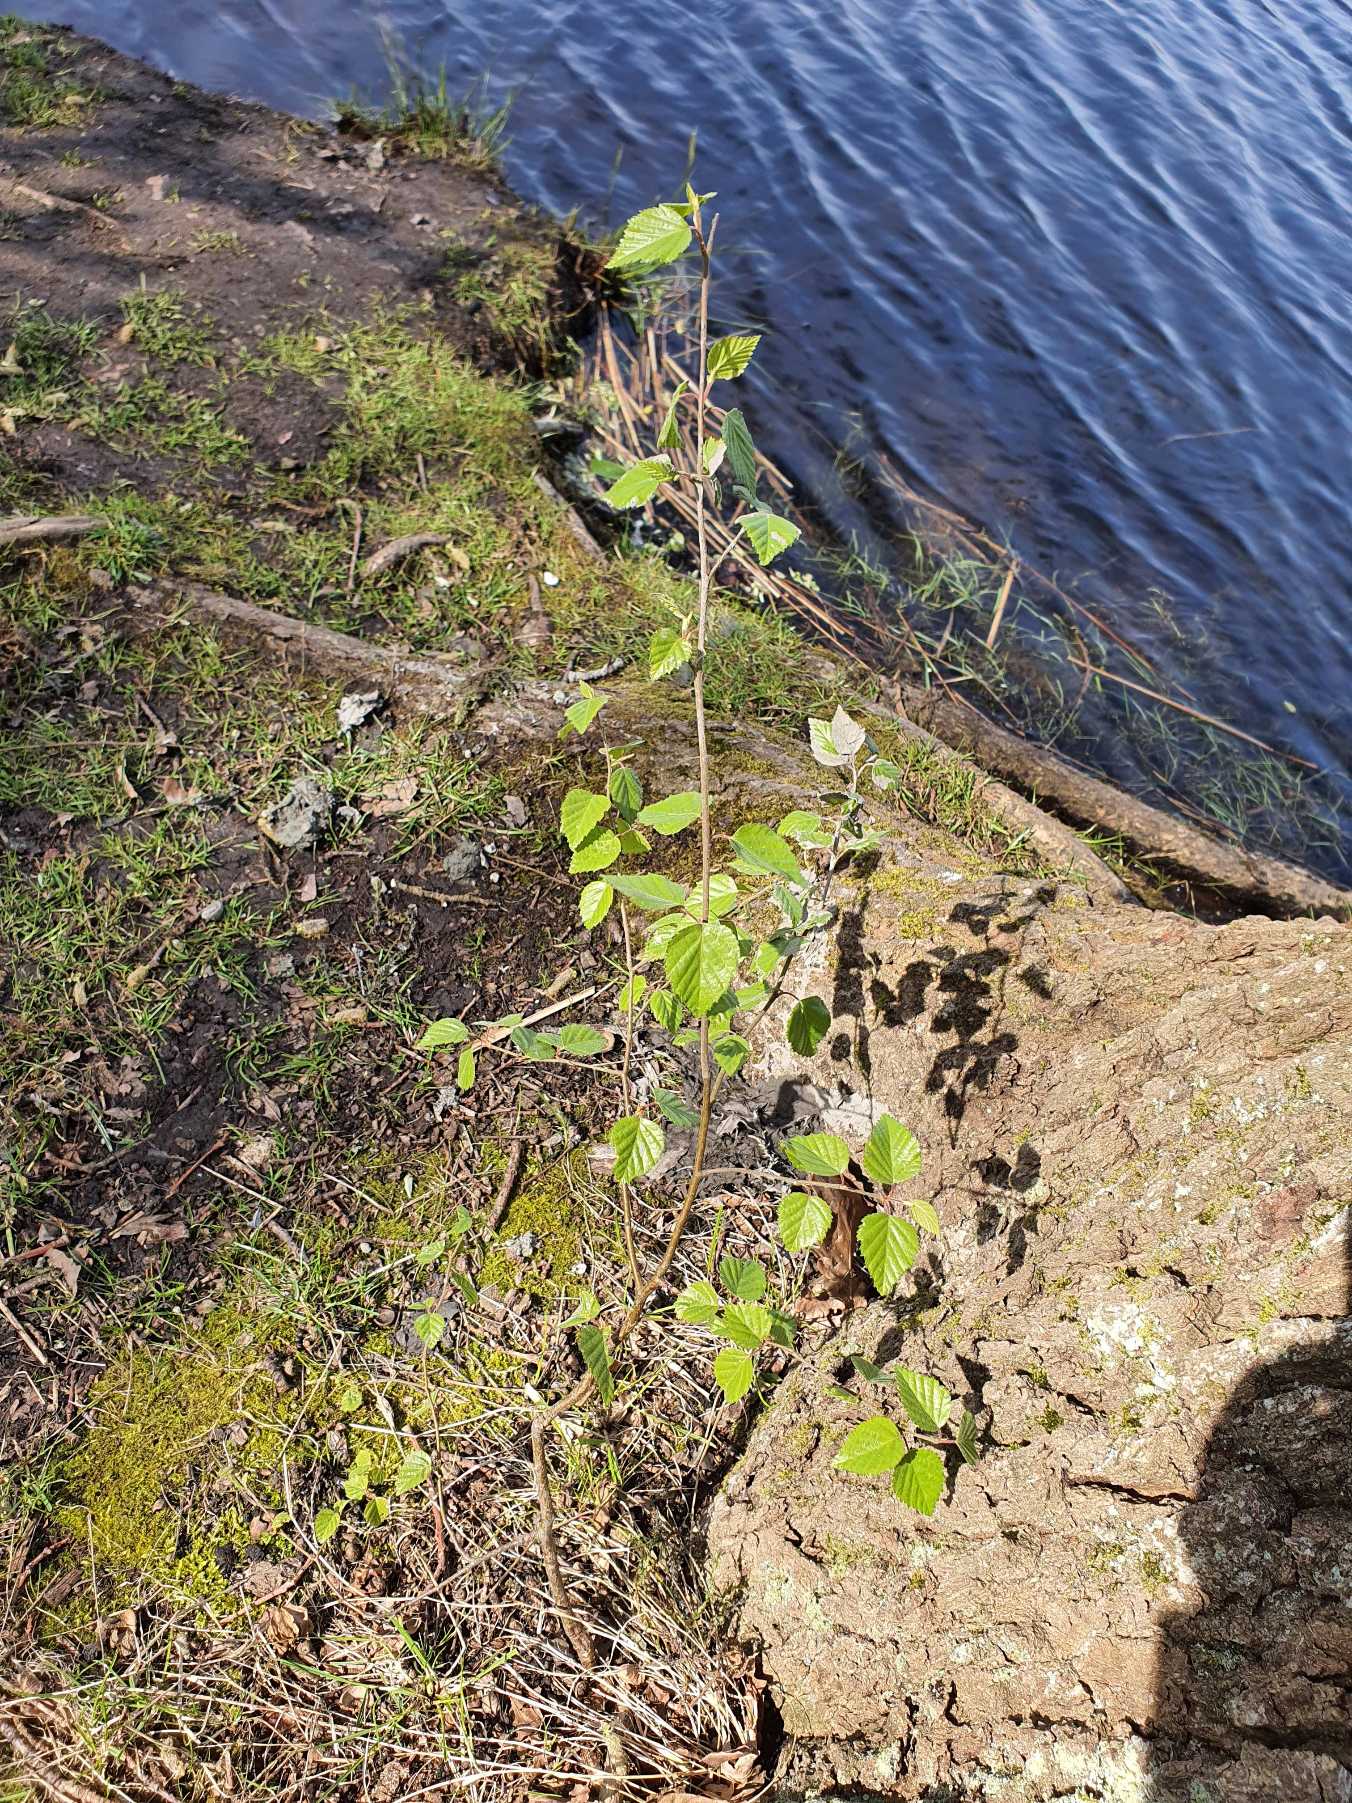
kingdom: Plantae
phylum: Tracheophyta
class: Magnoliopsida
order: Fagales
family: Betulaceae
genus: Betula
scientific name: Betula pubescens
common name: Dun-birk
